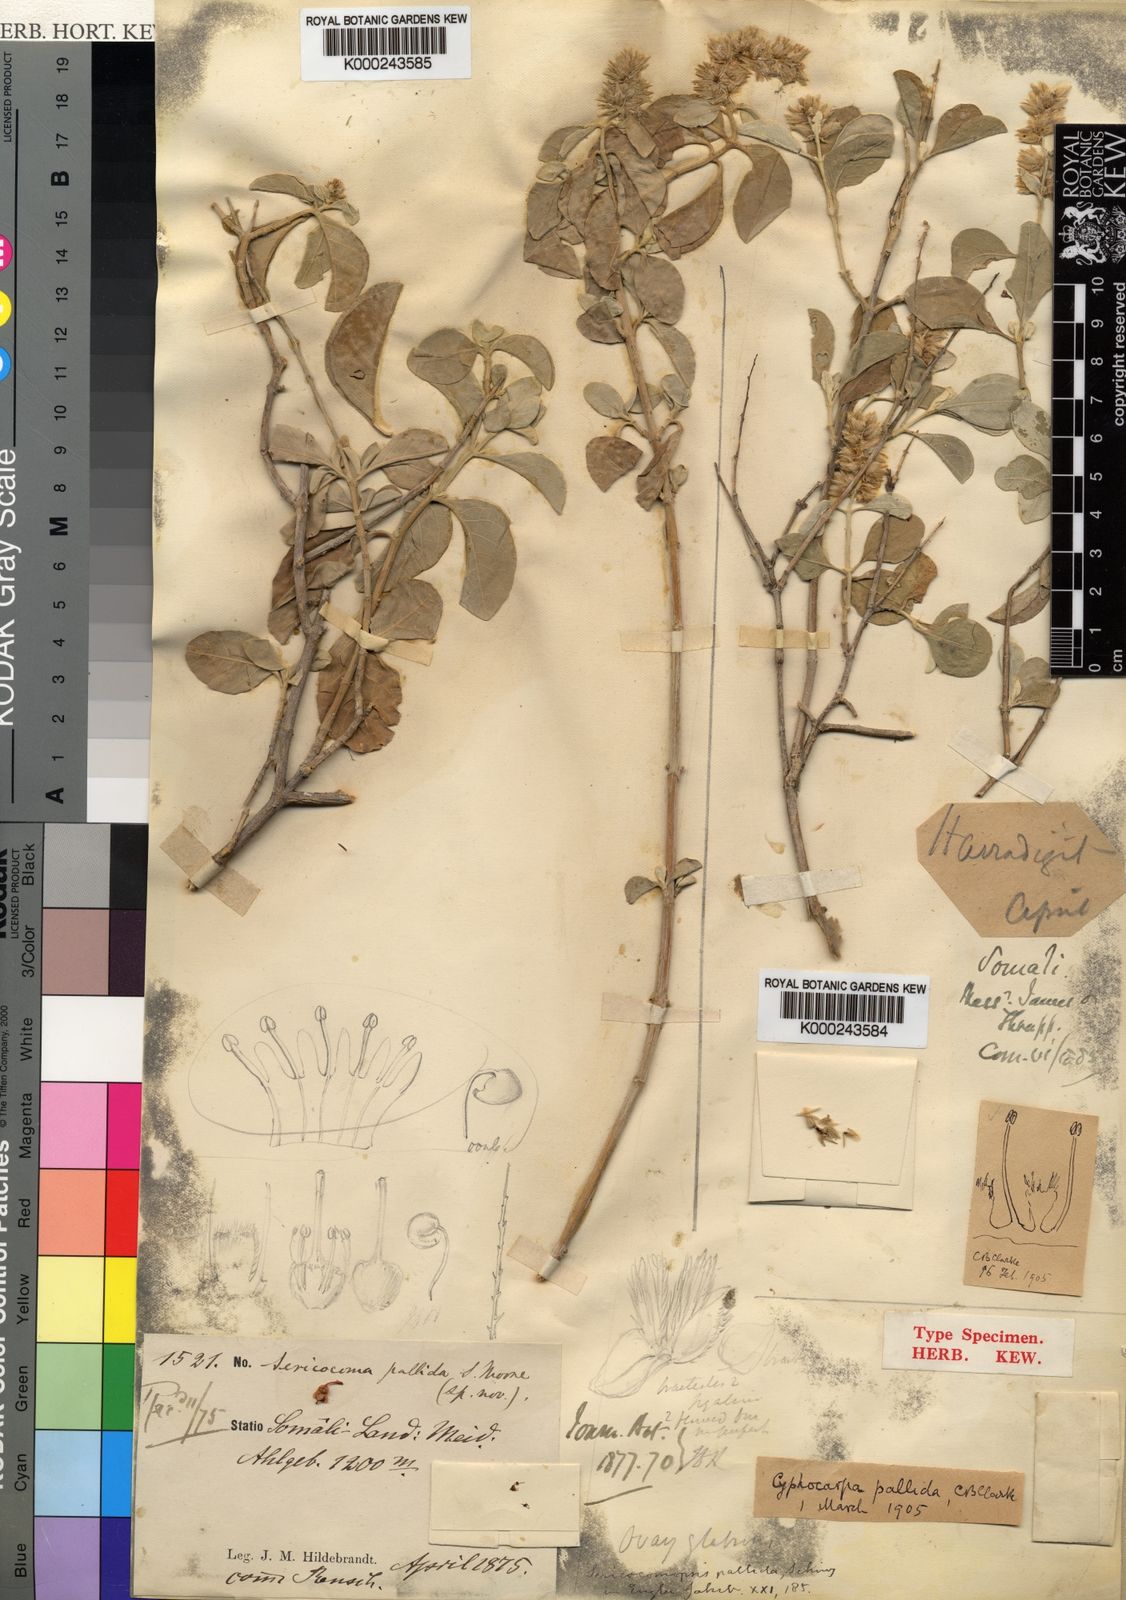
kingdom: Plantae
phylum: Tracheophyta
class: Magnoliopsida
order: Caryophyllales
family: Amaranthaceae
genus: Sericocomopsis
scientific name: Sericocomopsis pallida
